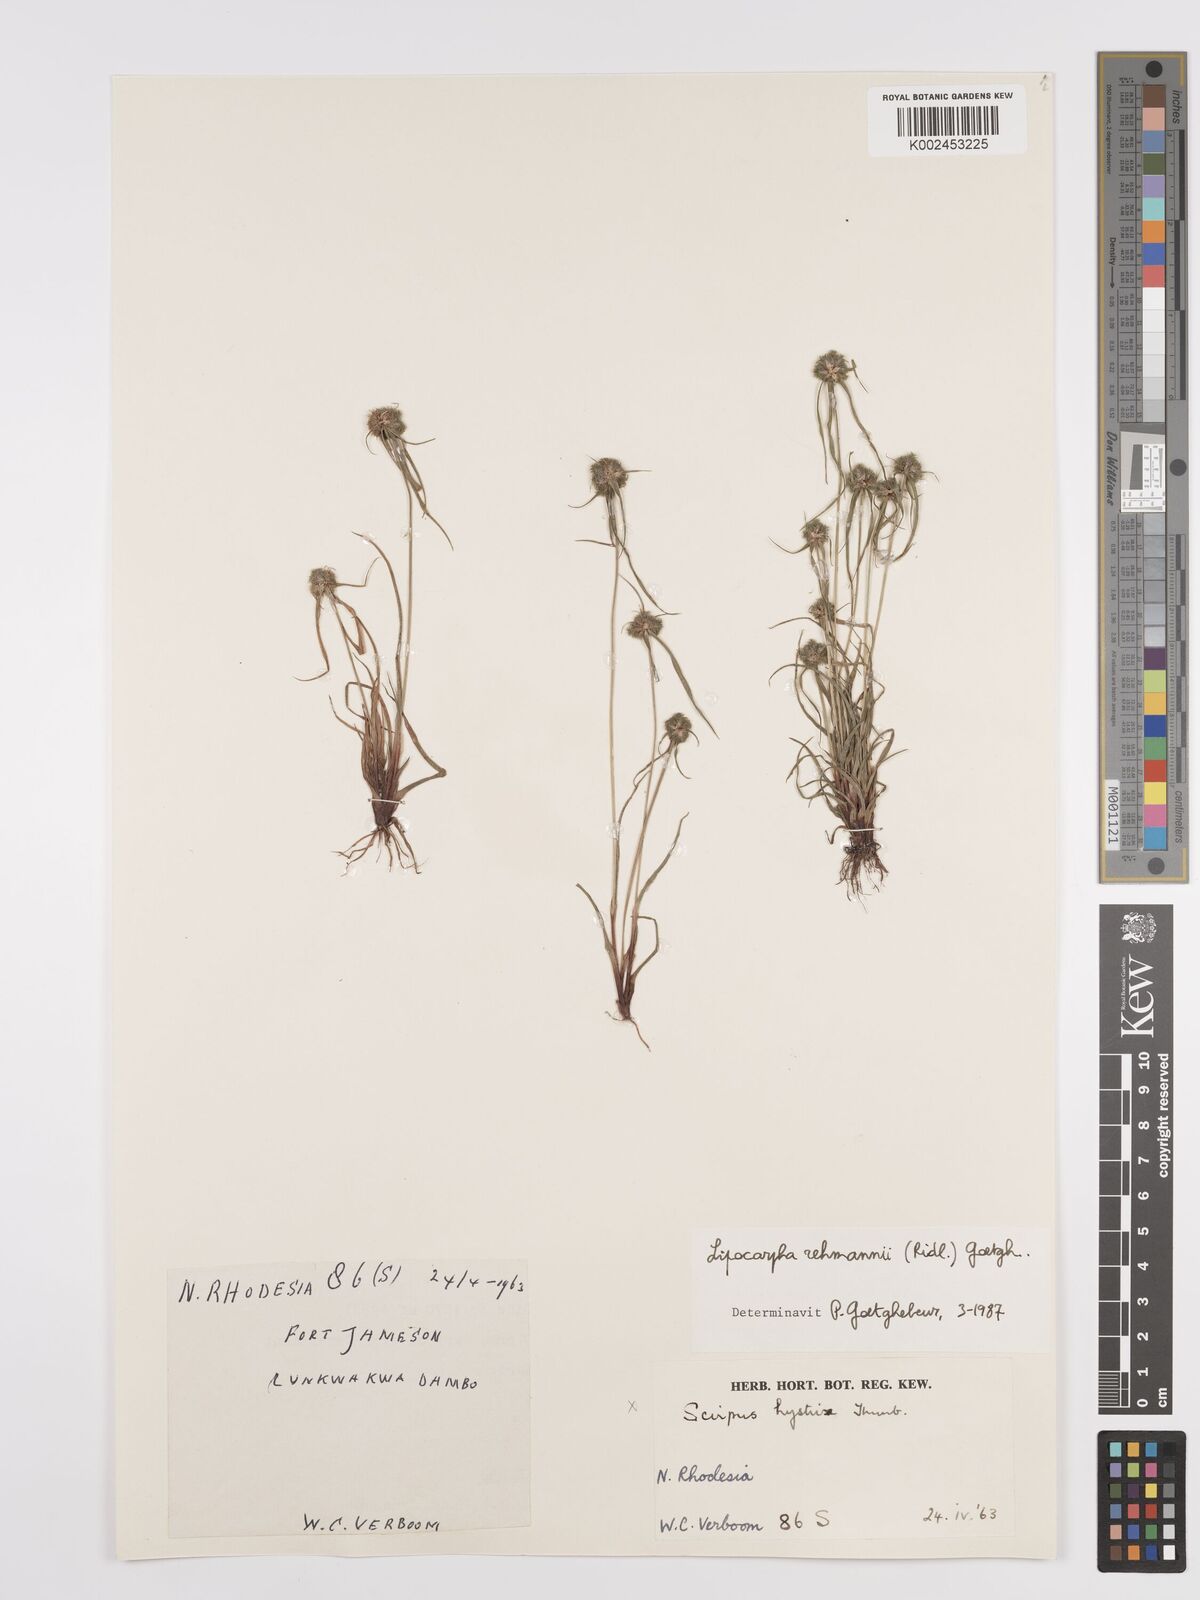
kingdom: Plantae
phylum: Tracheophyta
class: Liliopsida
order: Poales
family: Cyperaceae
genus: Cyperus
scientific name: Cyperus sanguinolentus
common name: Purpleglume flatsedge
